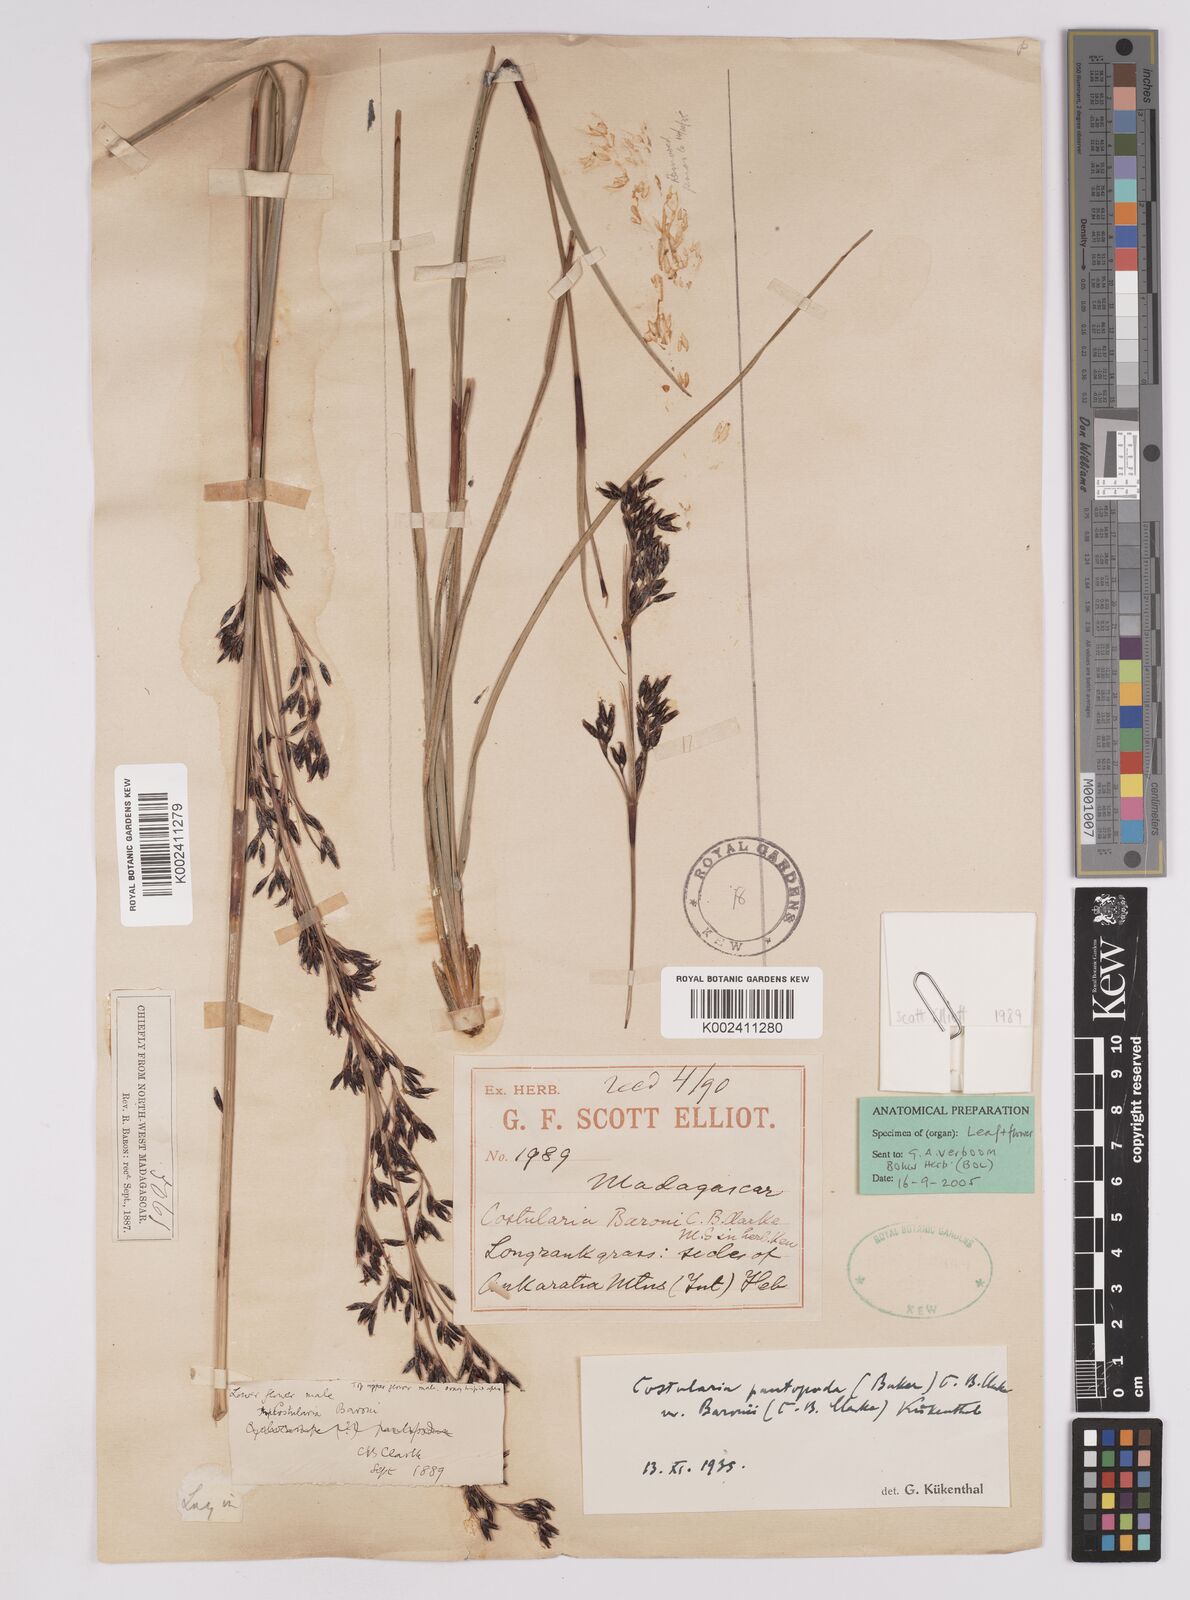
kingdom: Plantae
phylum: Tracheophyta
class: Liliopsida
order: Poales
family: Cyperaceae
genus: Costularia
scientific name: Costularia pantopoda
